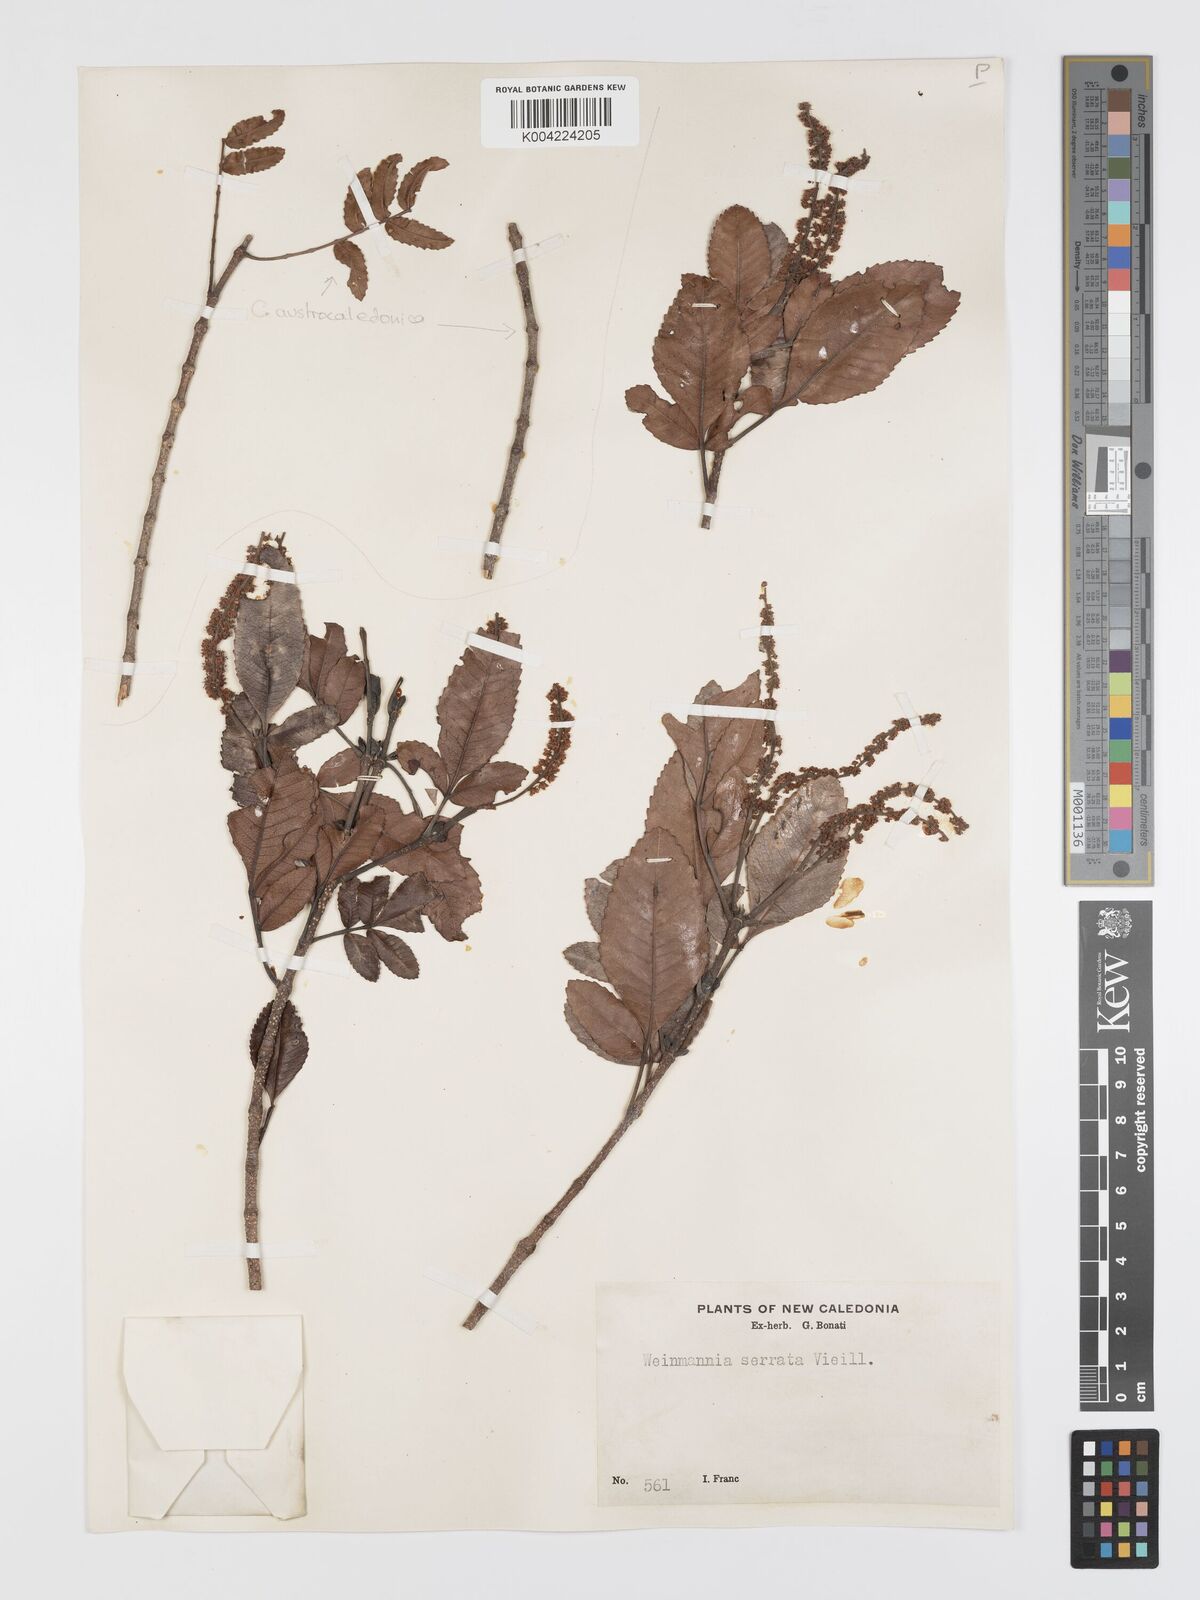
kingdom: Plantae
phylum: Tracheophyta
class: Magnoliopsida
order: Oxalidales
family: Cunoniaceae
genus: Cunonia
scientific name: Cunonia koghicola
